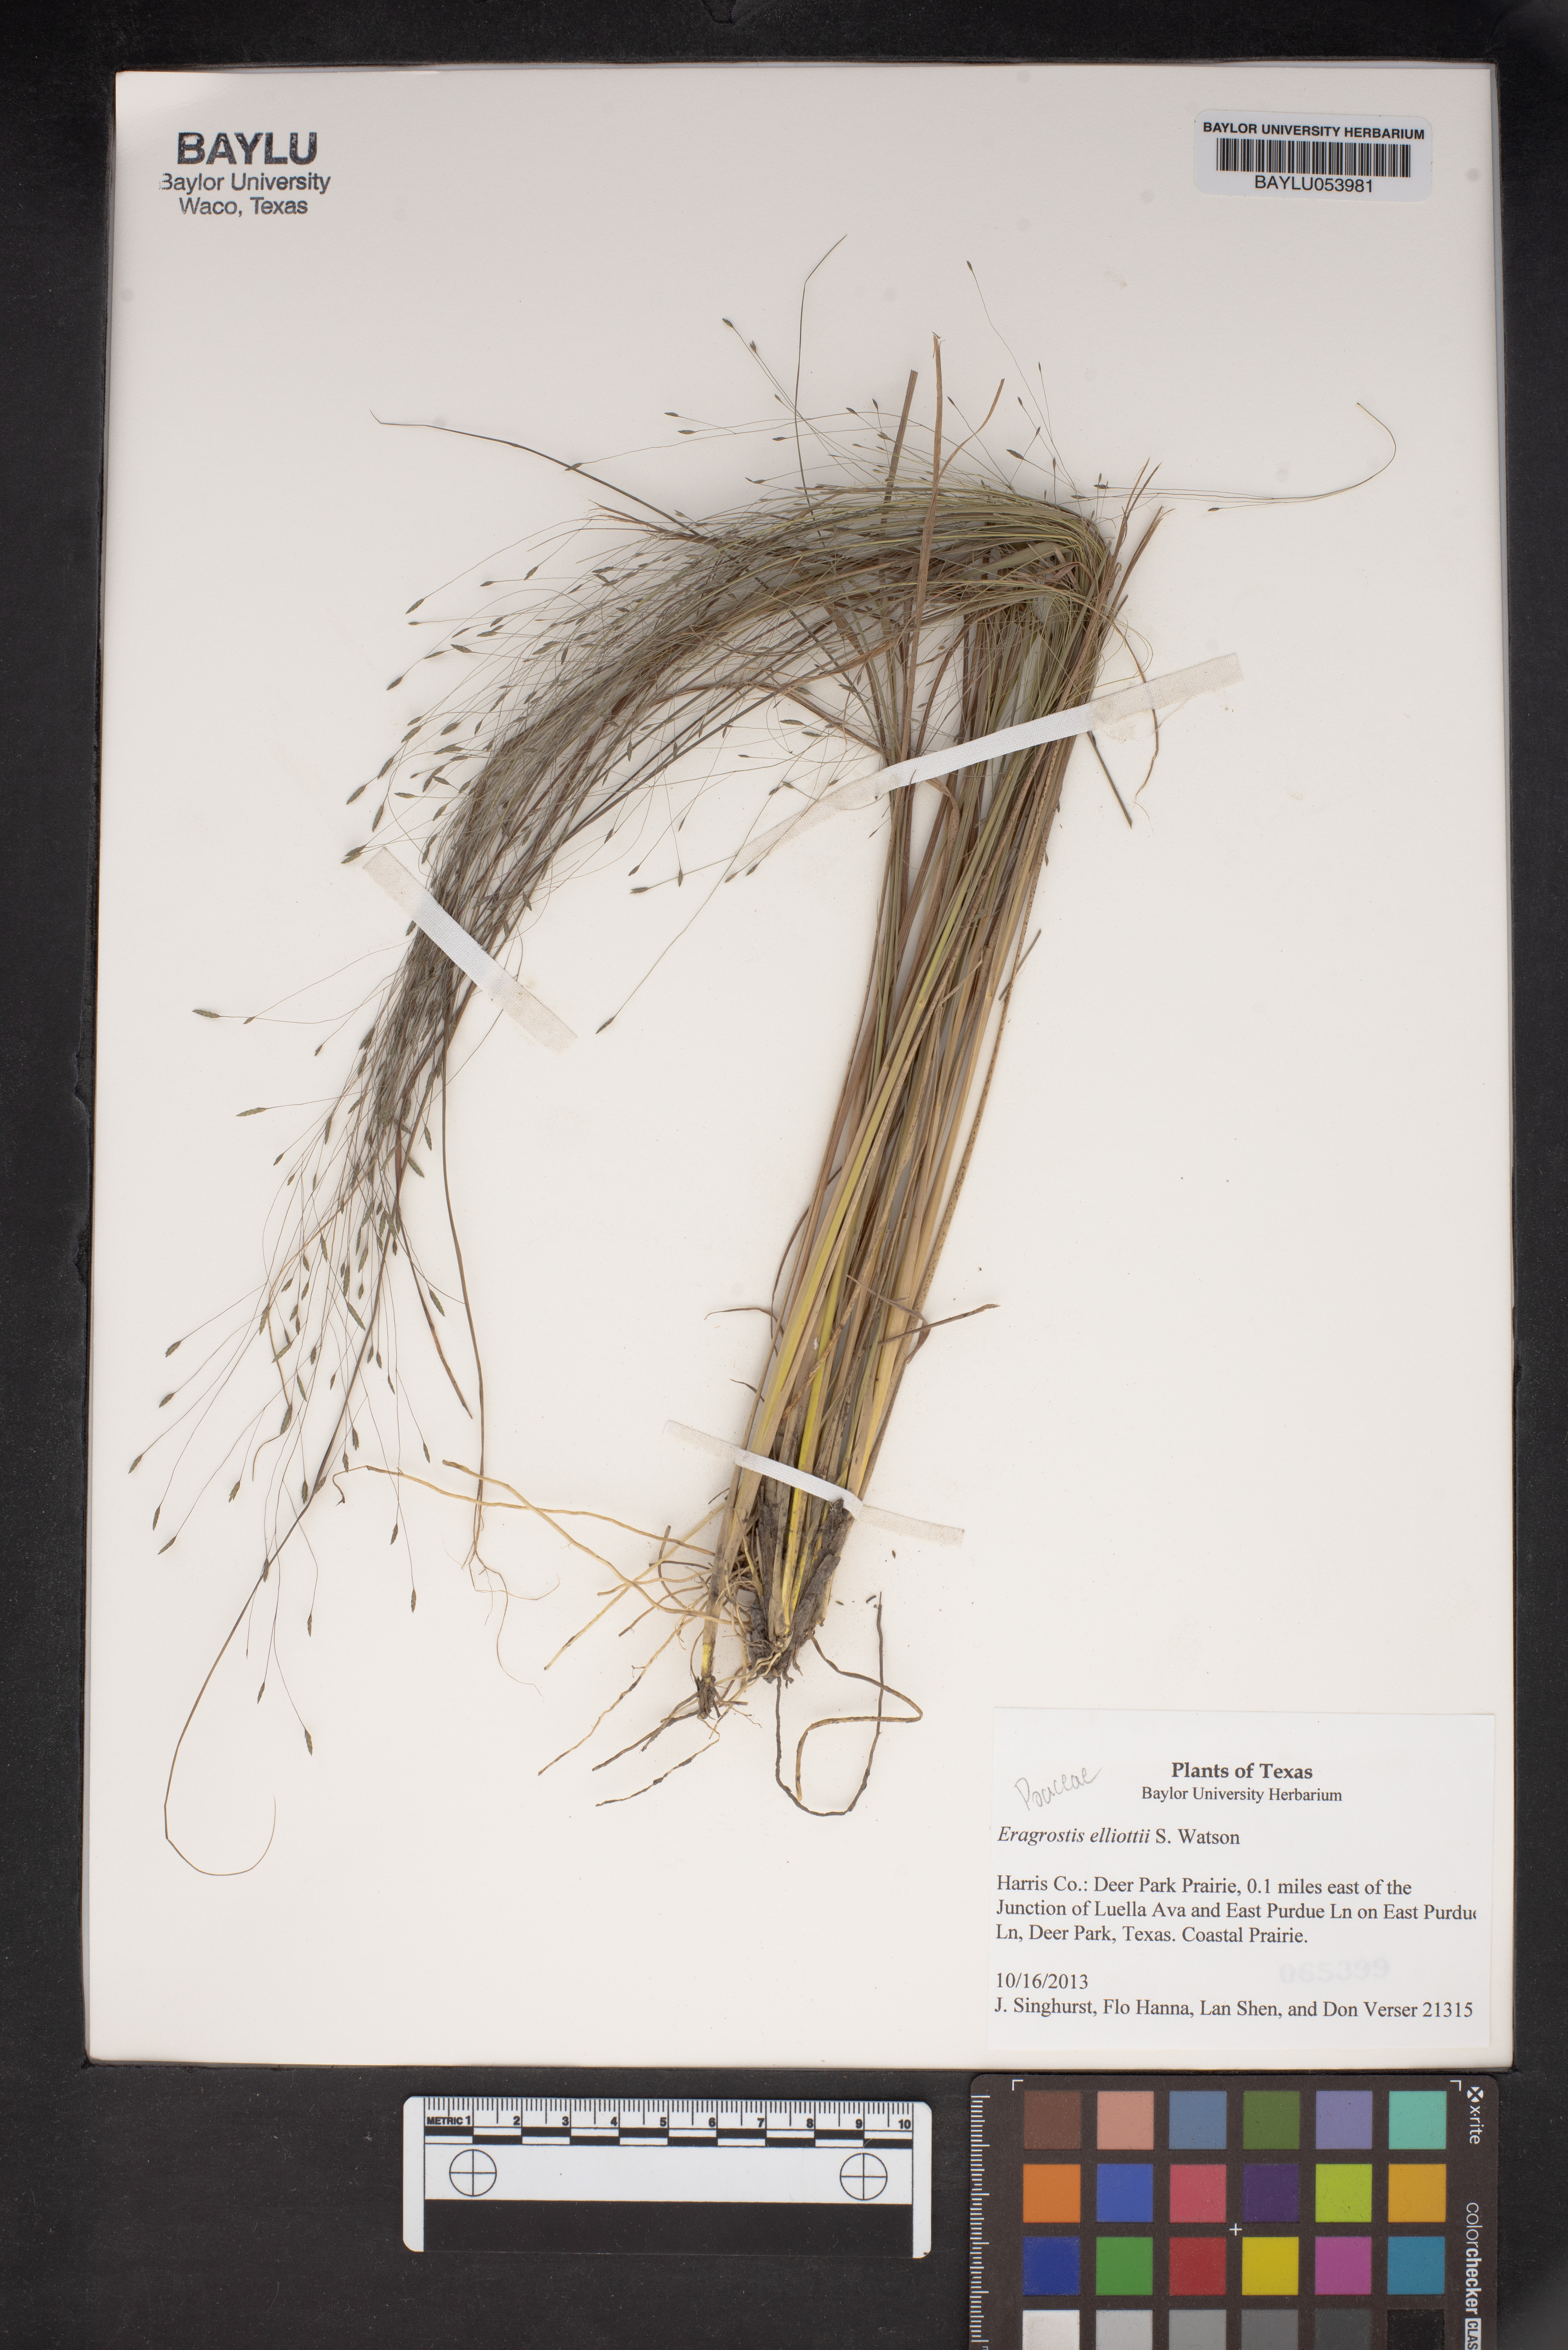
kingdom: Plantae
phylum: Tracheophyta
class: Liliopsida
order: Poales
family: Poaceae
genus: Eragrostis
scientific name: Eragrostis elliottii
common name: Elliott's love grass
